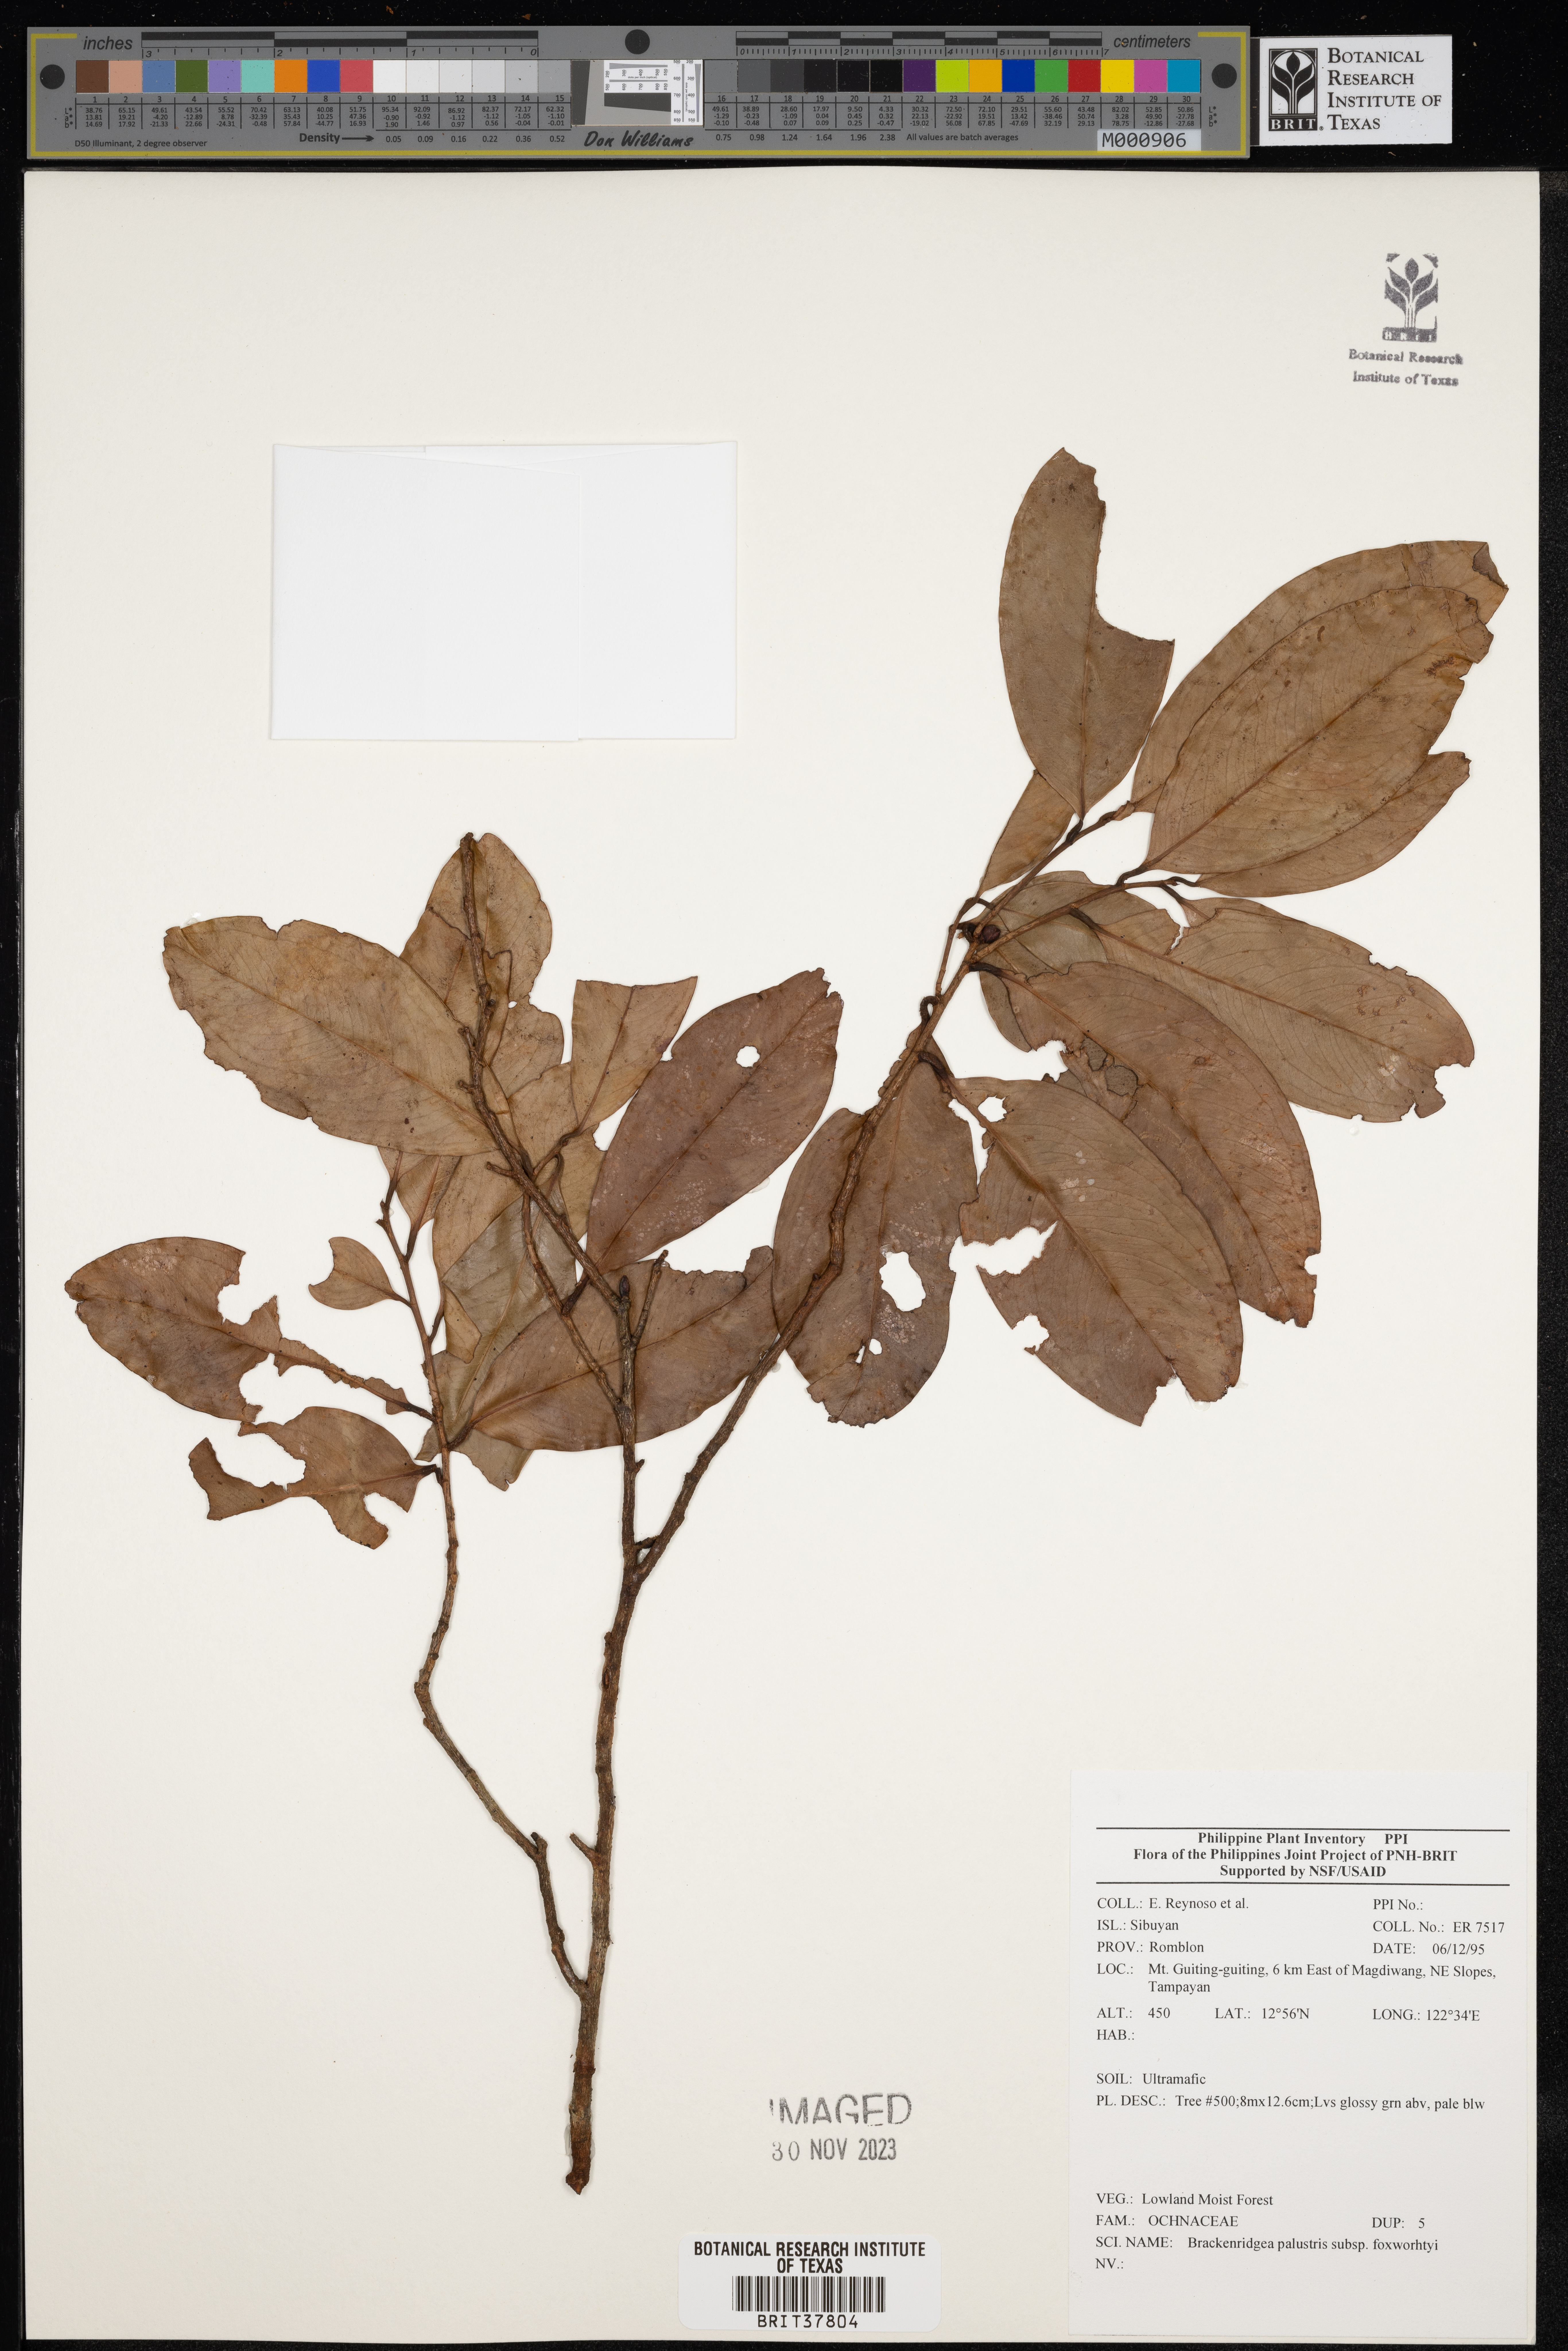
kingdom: Plantae
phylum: Tracheophyta
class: Magnoliopsida
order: Malpighiales
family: Ochnaceae
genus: Brackenridgea
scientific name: Brackenridgea
